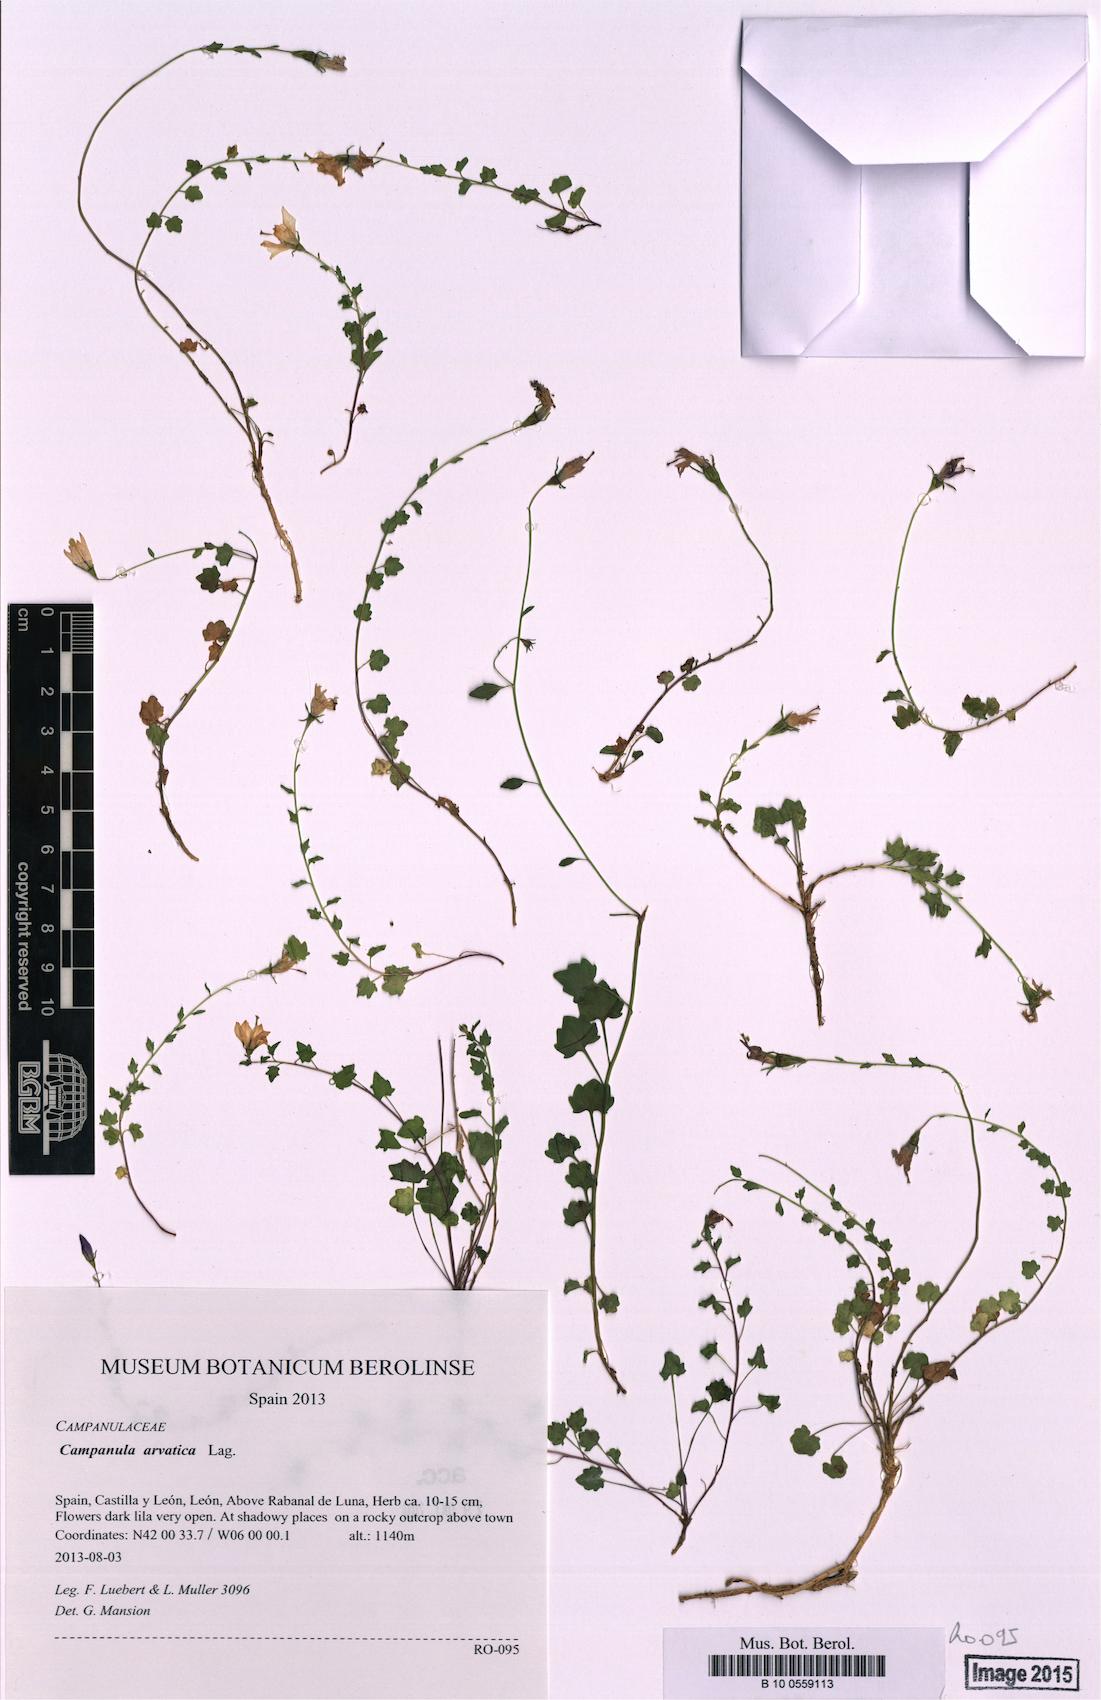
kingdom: Plantae
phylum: Tracheophyta
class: Magnoliopsida
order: Asterales
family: Campanulaceae
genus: Campanula
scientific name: Campanula arvatica
